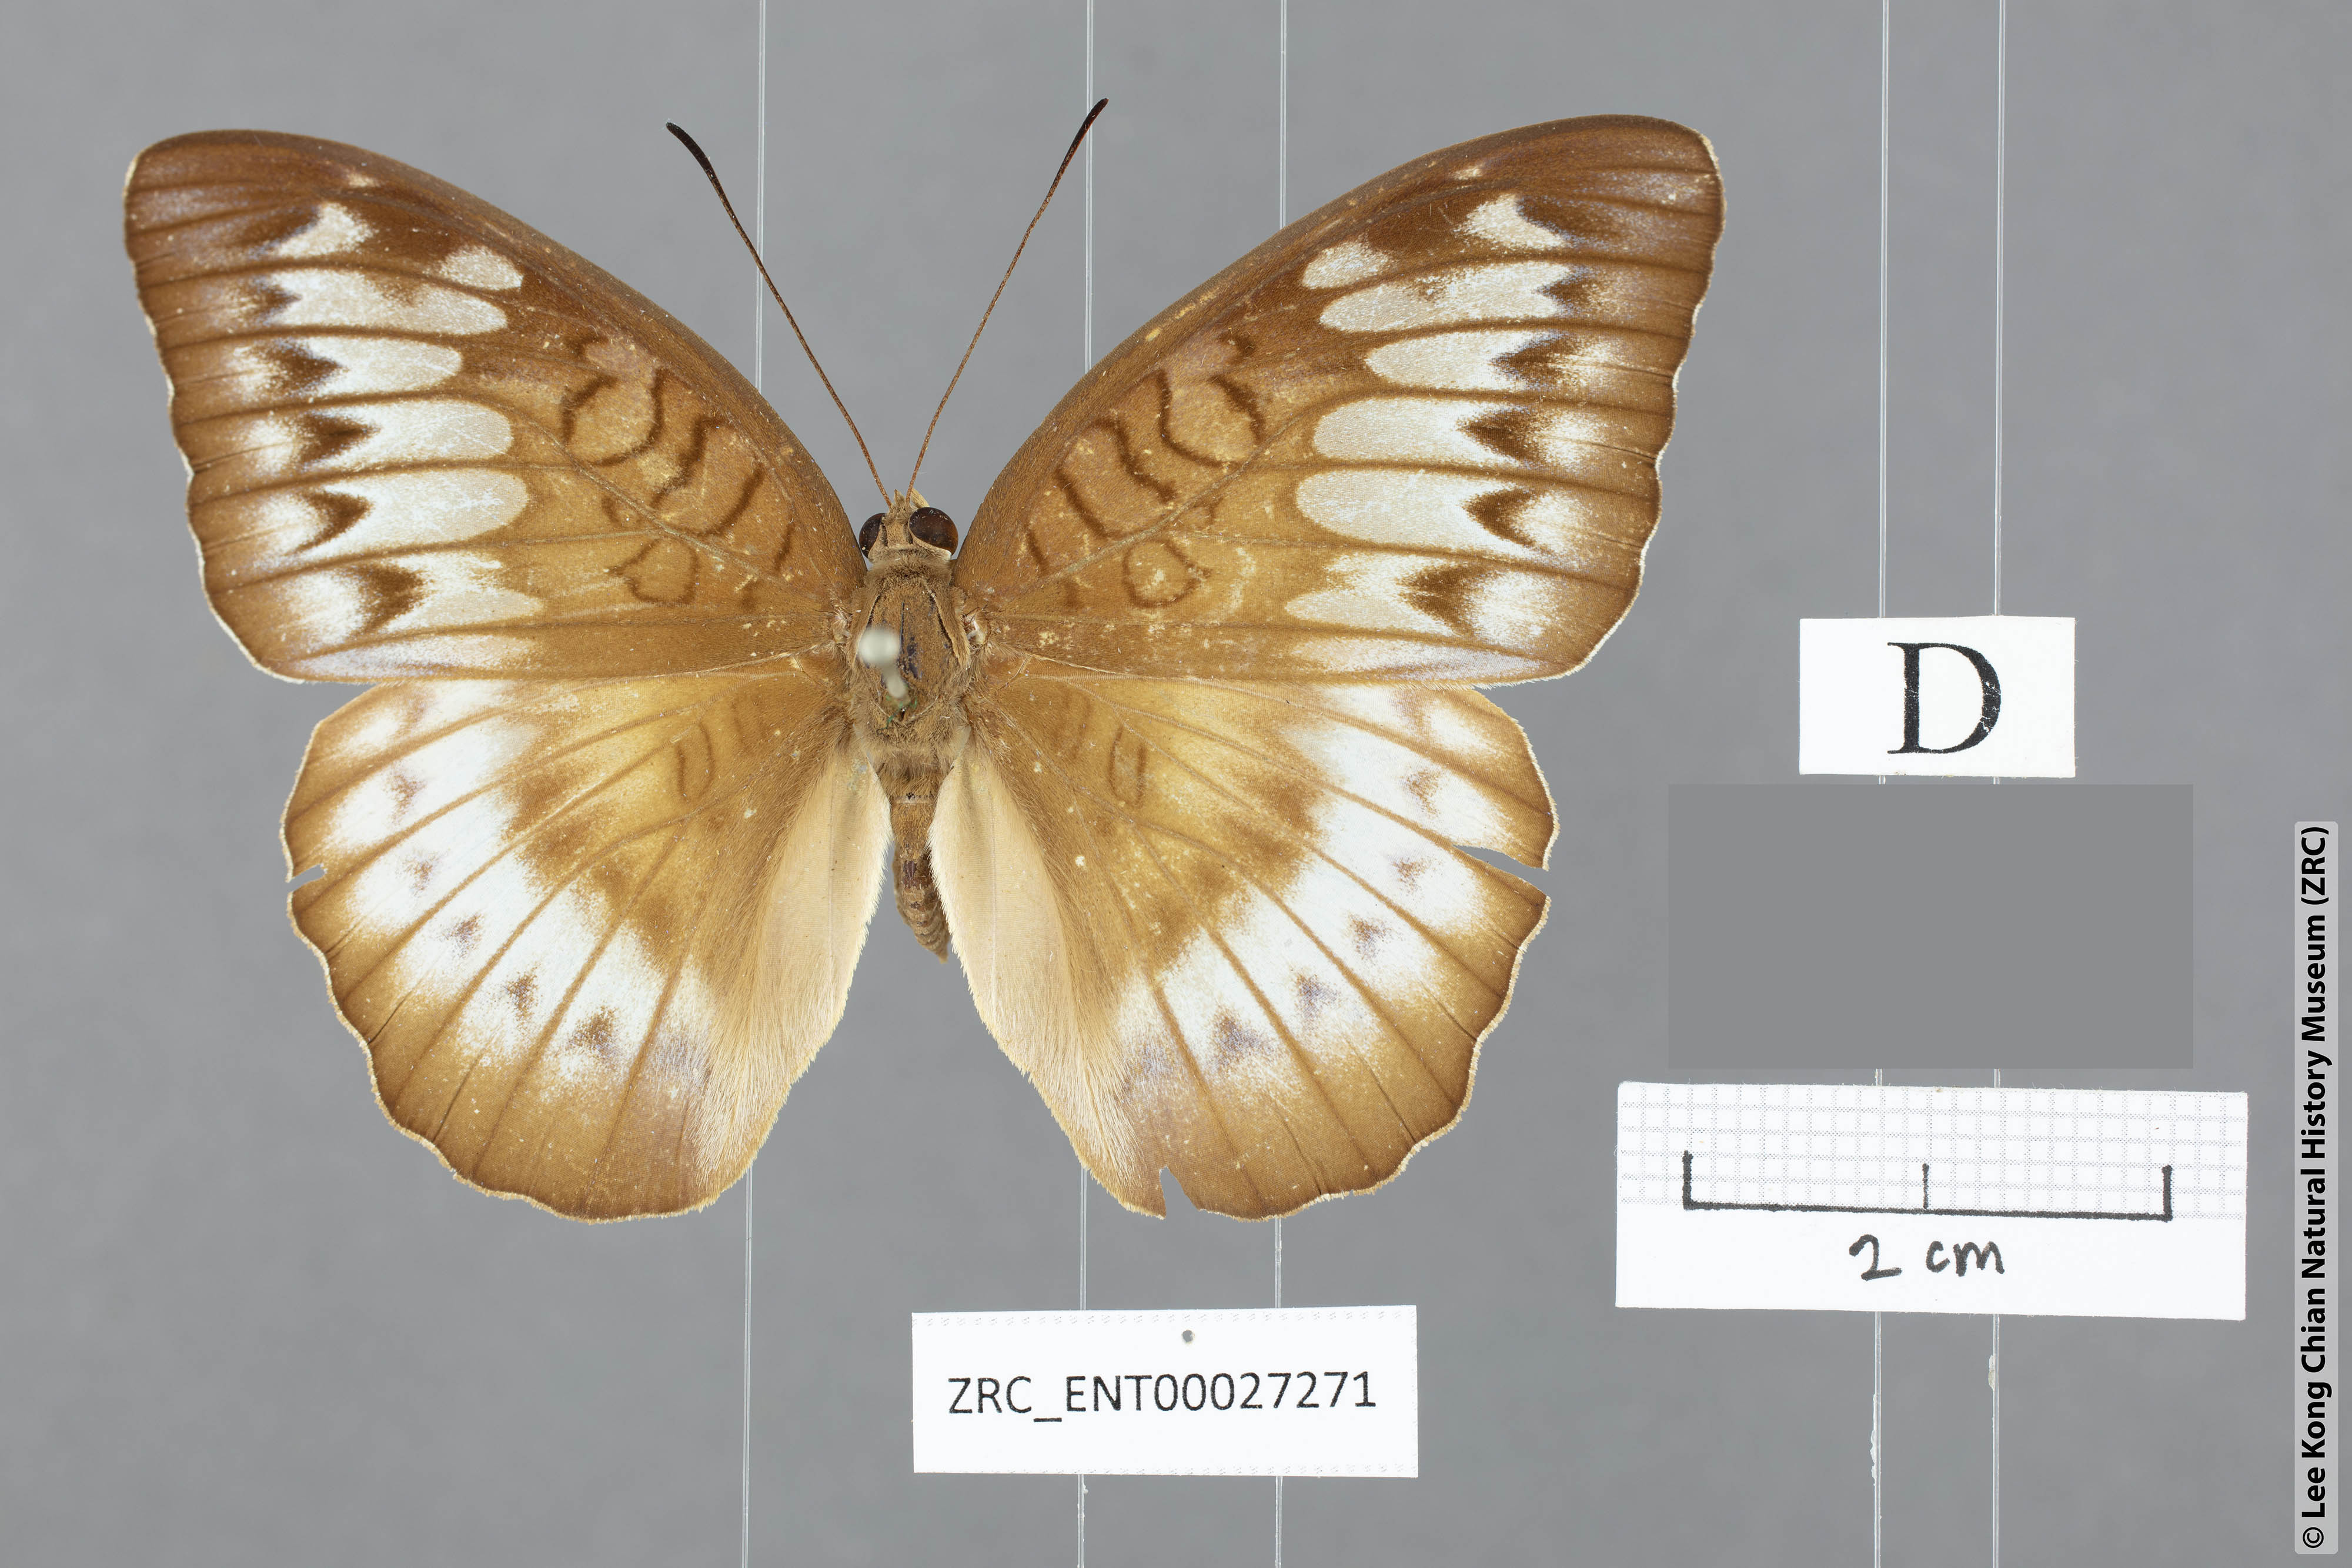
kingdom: Animalia
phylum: Arthropoda
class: Insecta
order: Lepidoptera
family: Nymphalidae
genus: Tanaecia
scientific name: Tanaecia coelebs
